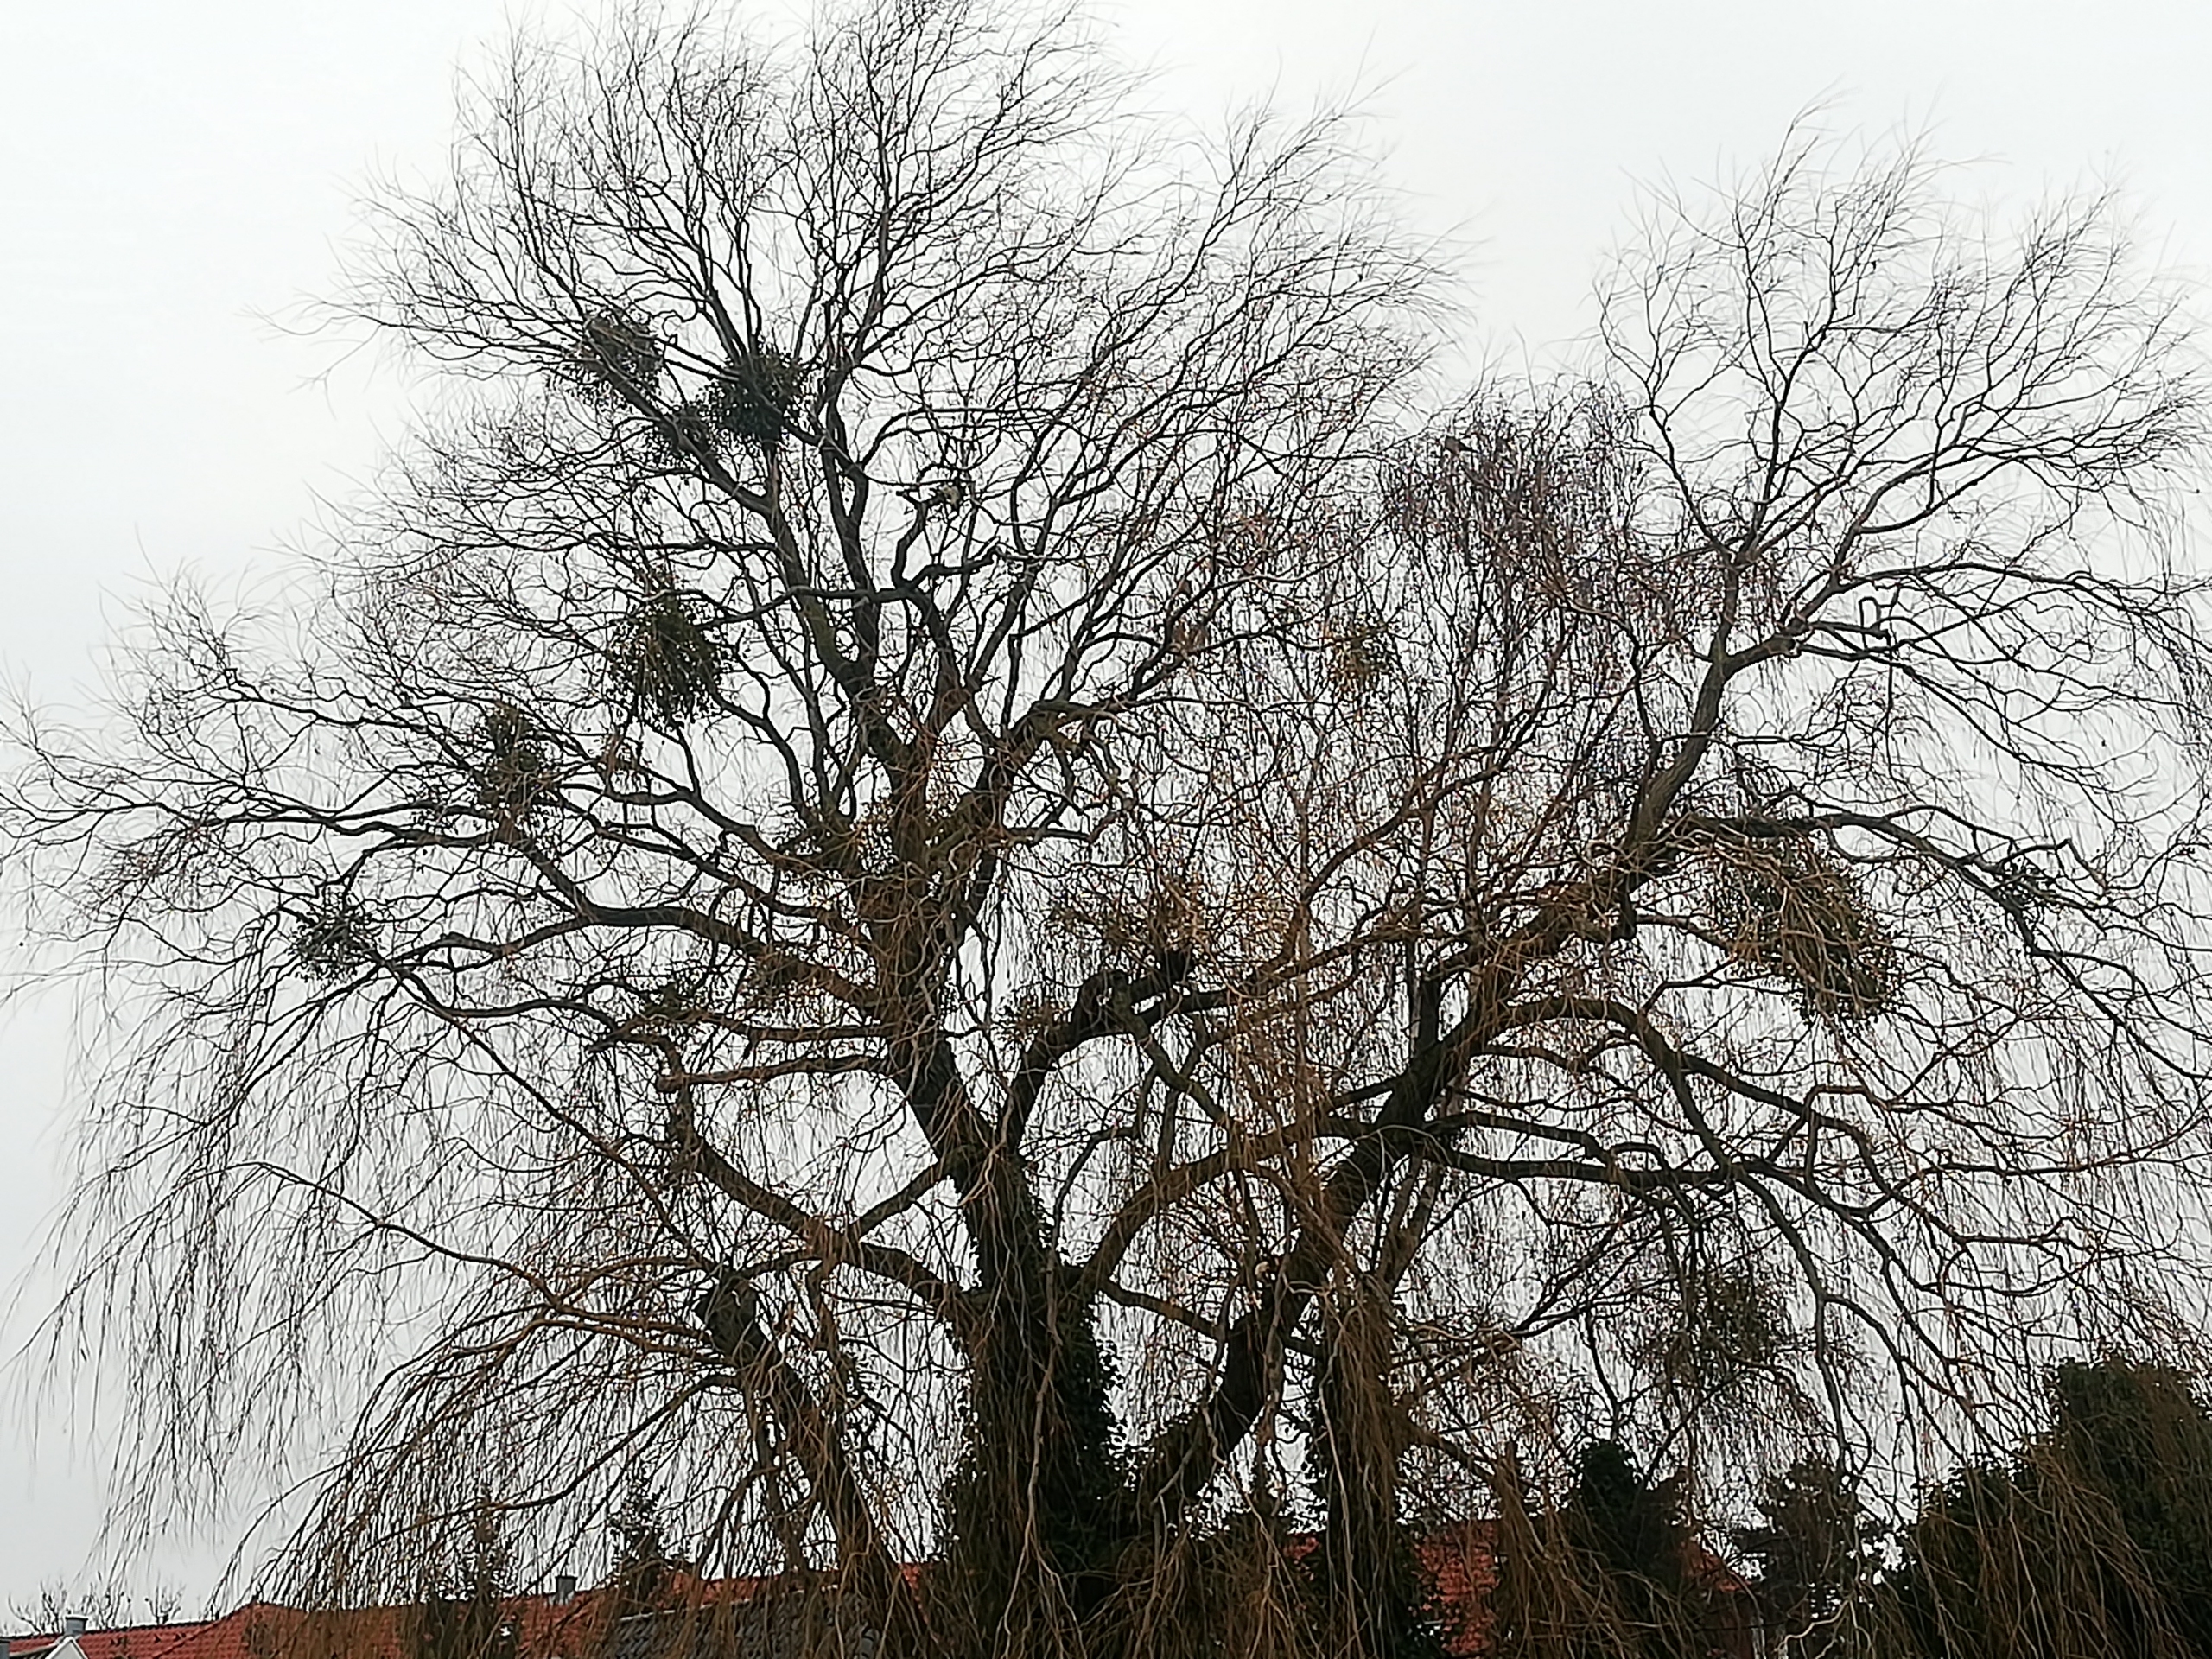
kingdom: Plantae
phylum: Tracheophyta
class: Magnoliopsida
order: Santalales
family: Viscaceae
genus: Viscum
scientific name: Viscum album
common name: Mistelten
